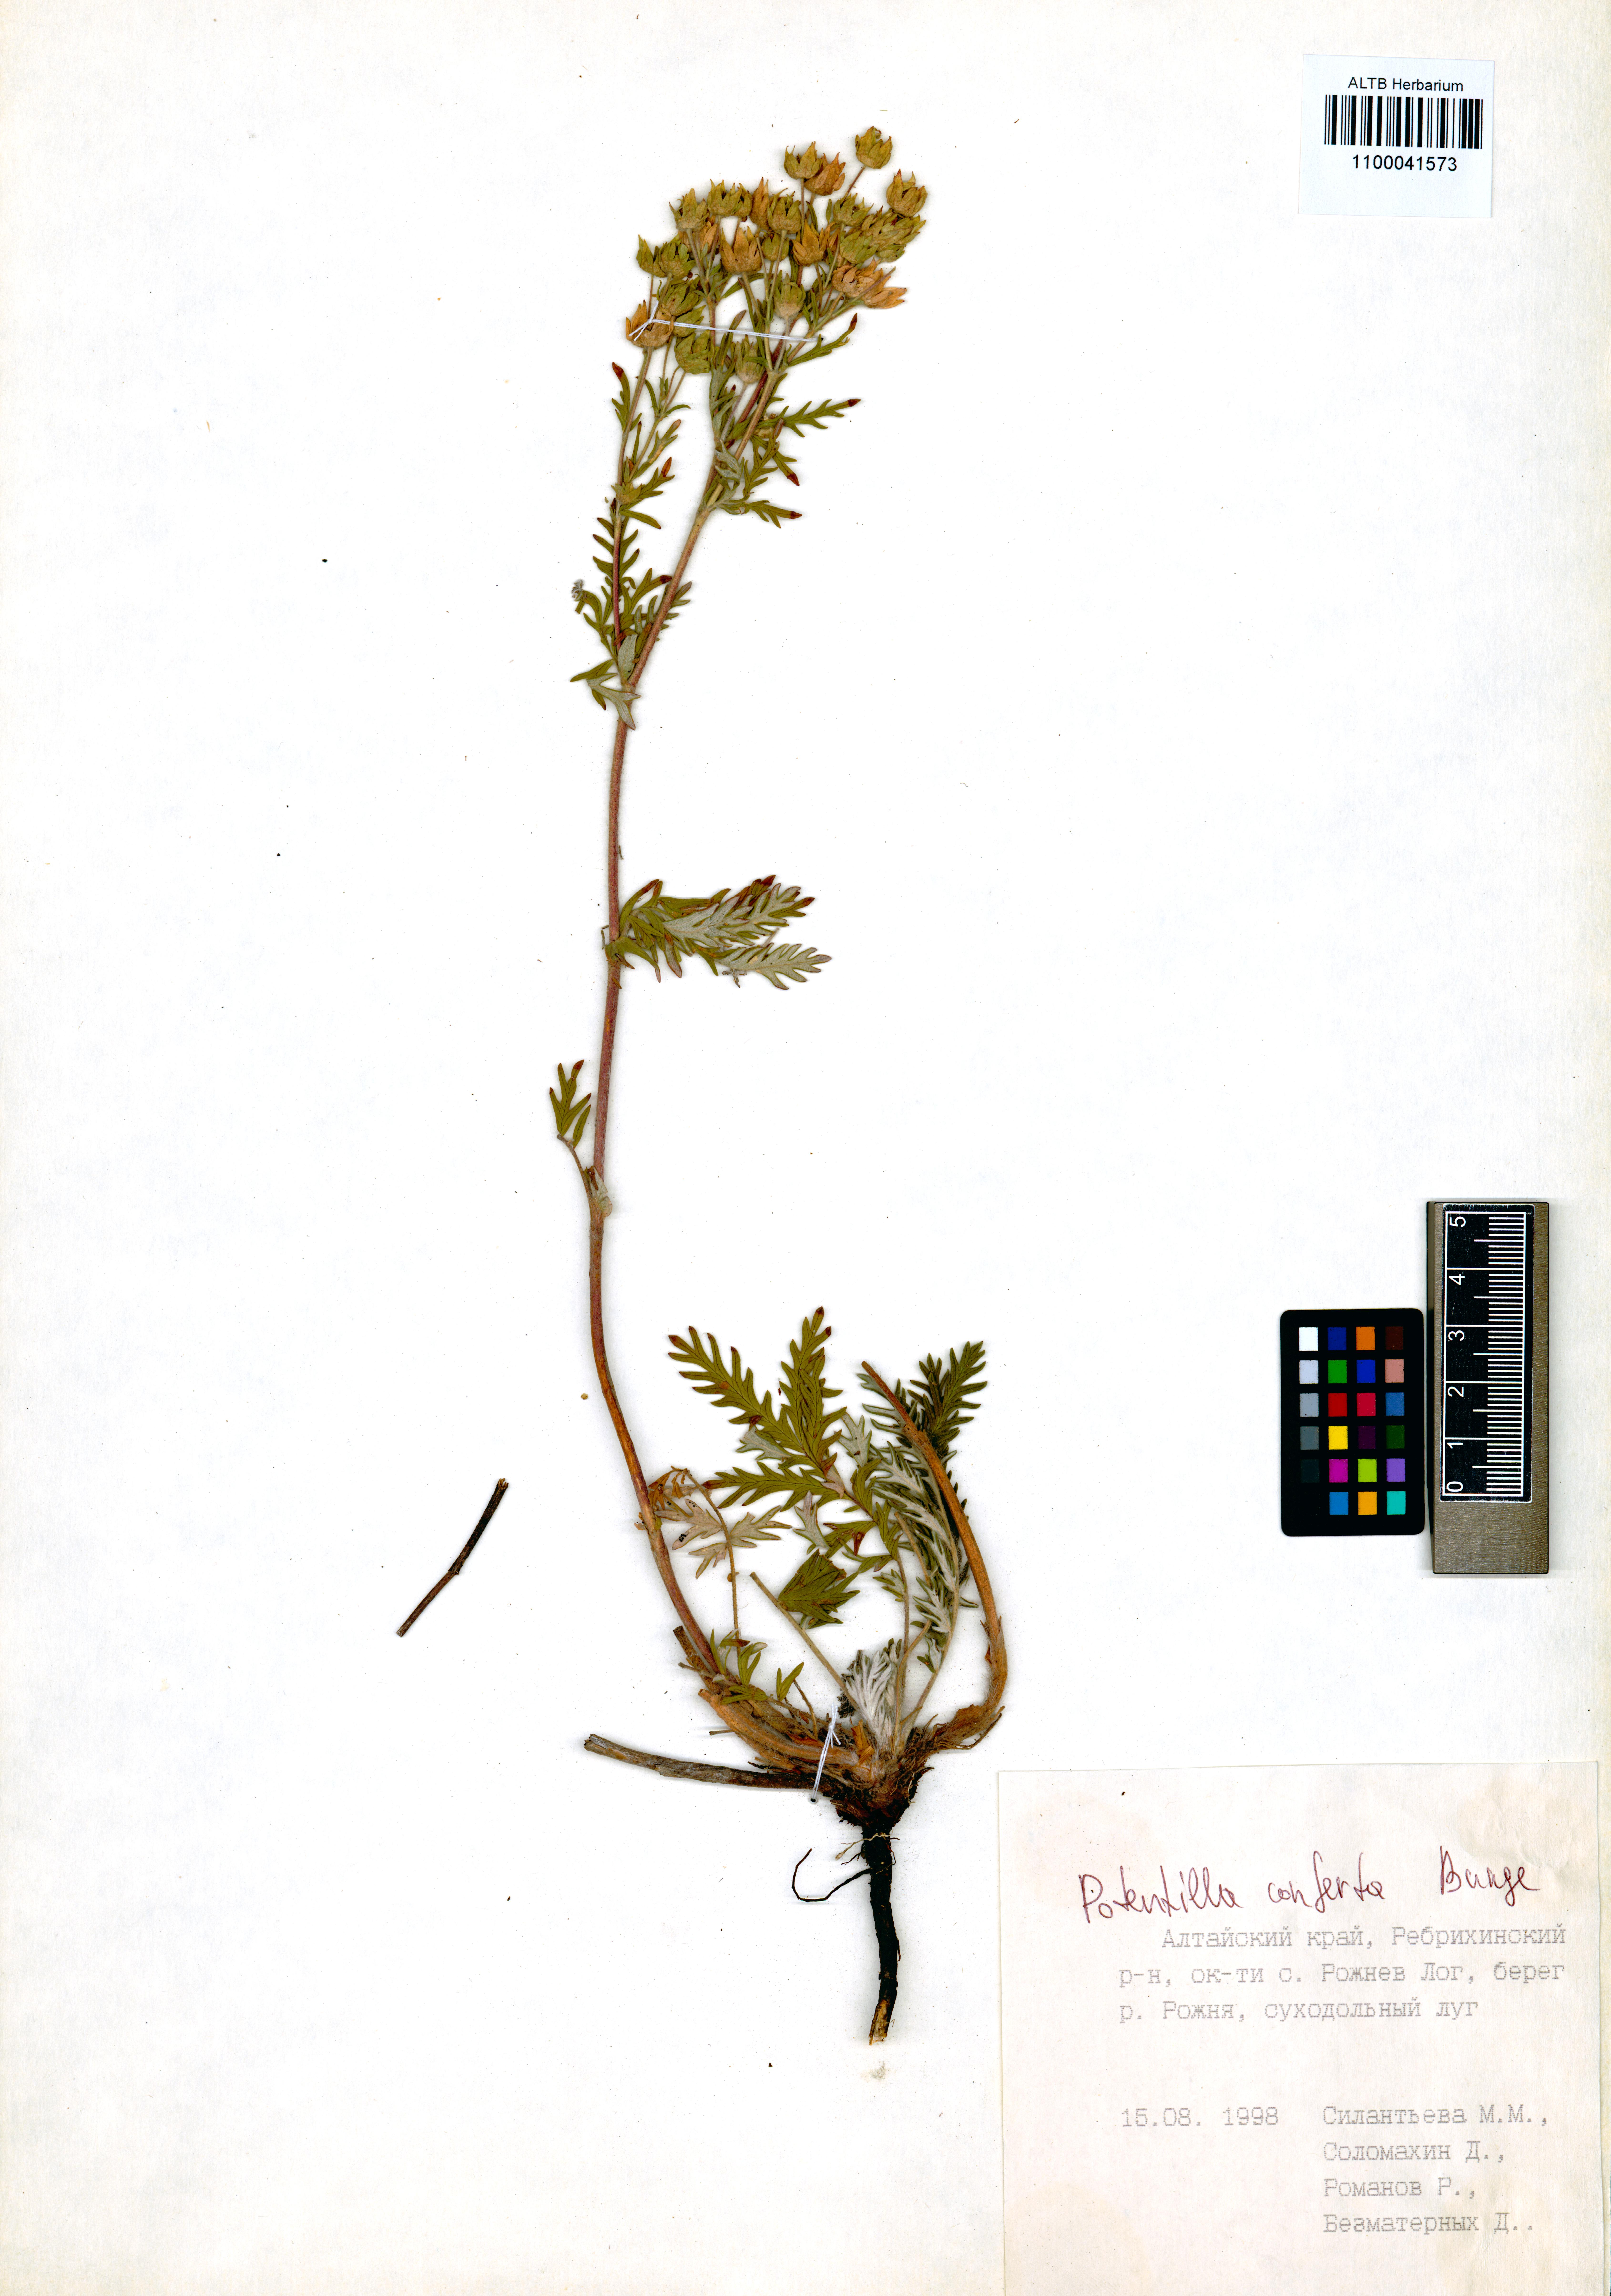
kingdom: Plantae
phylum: Tracheophyta
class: Magnoliopsida
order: Rosales
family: Rosaceae
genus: Potentilla
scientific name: Potentilla conferta
